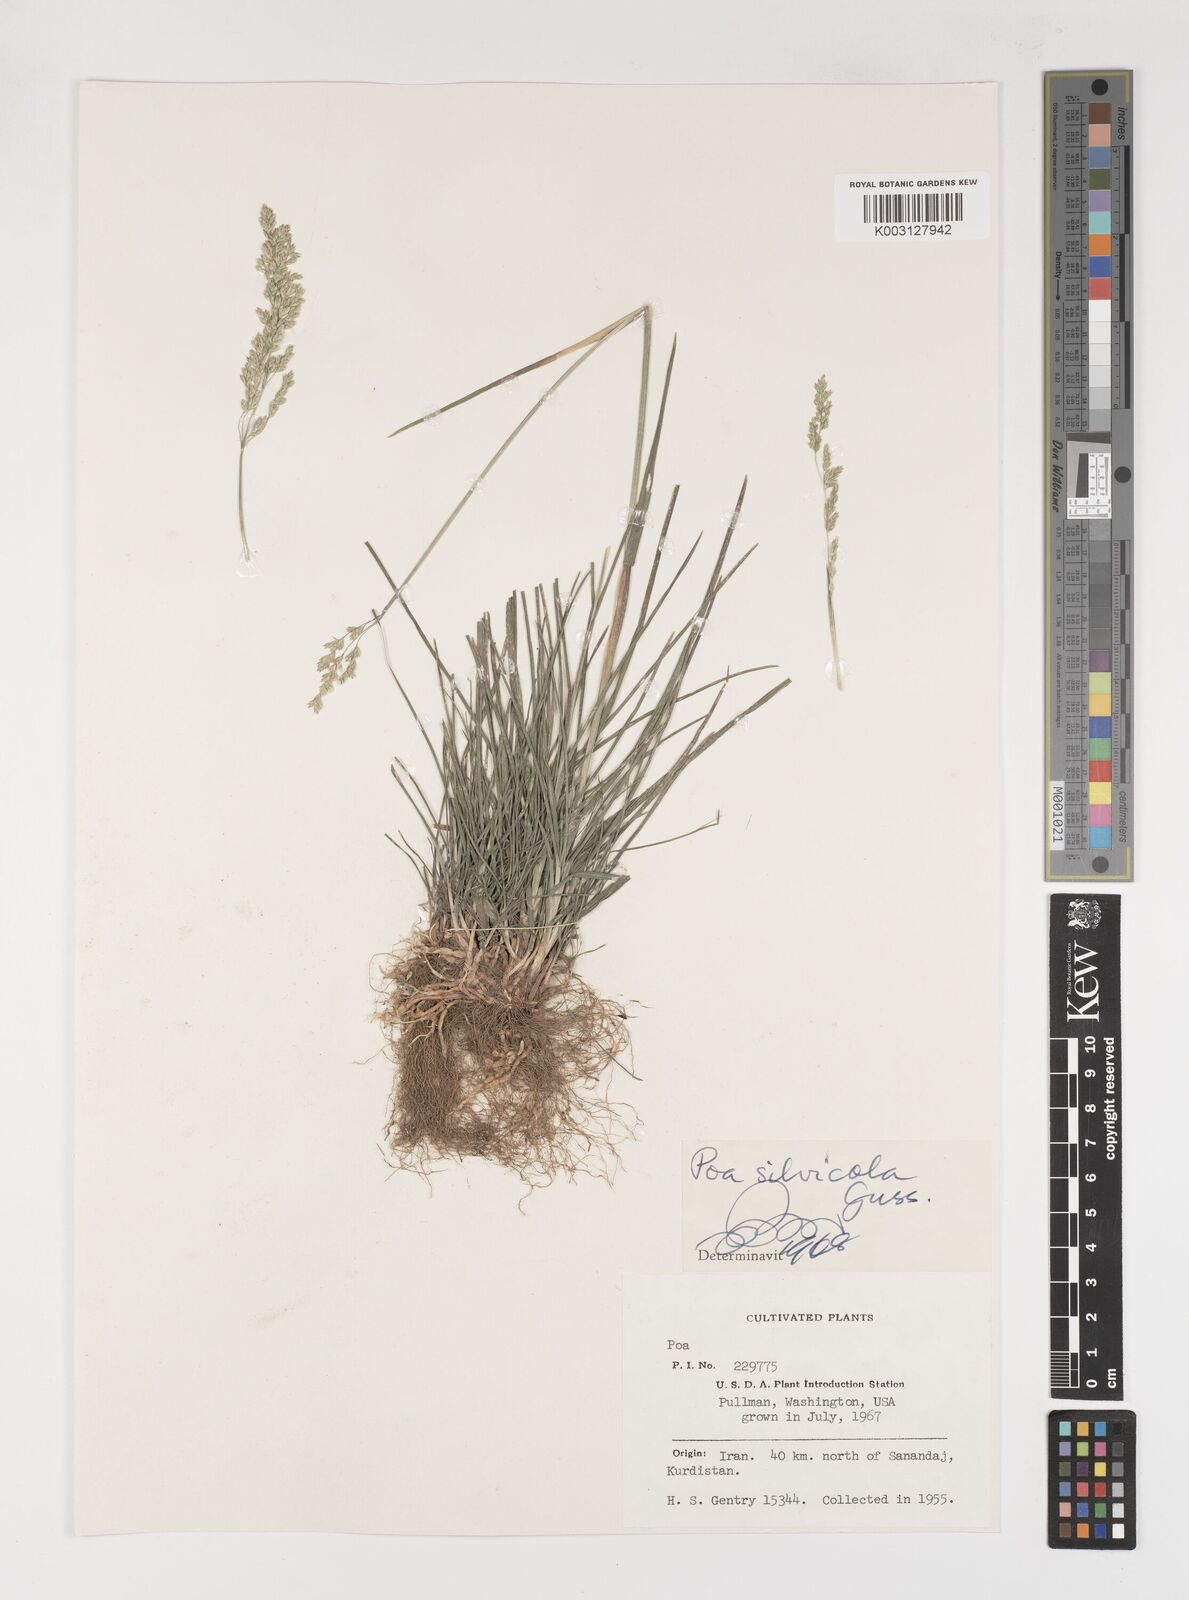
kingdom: Plantae
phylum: Tracheophyta
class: Liliopsida
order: Poales
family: Poaceae
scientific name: Poaceae
